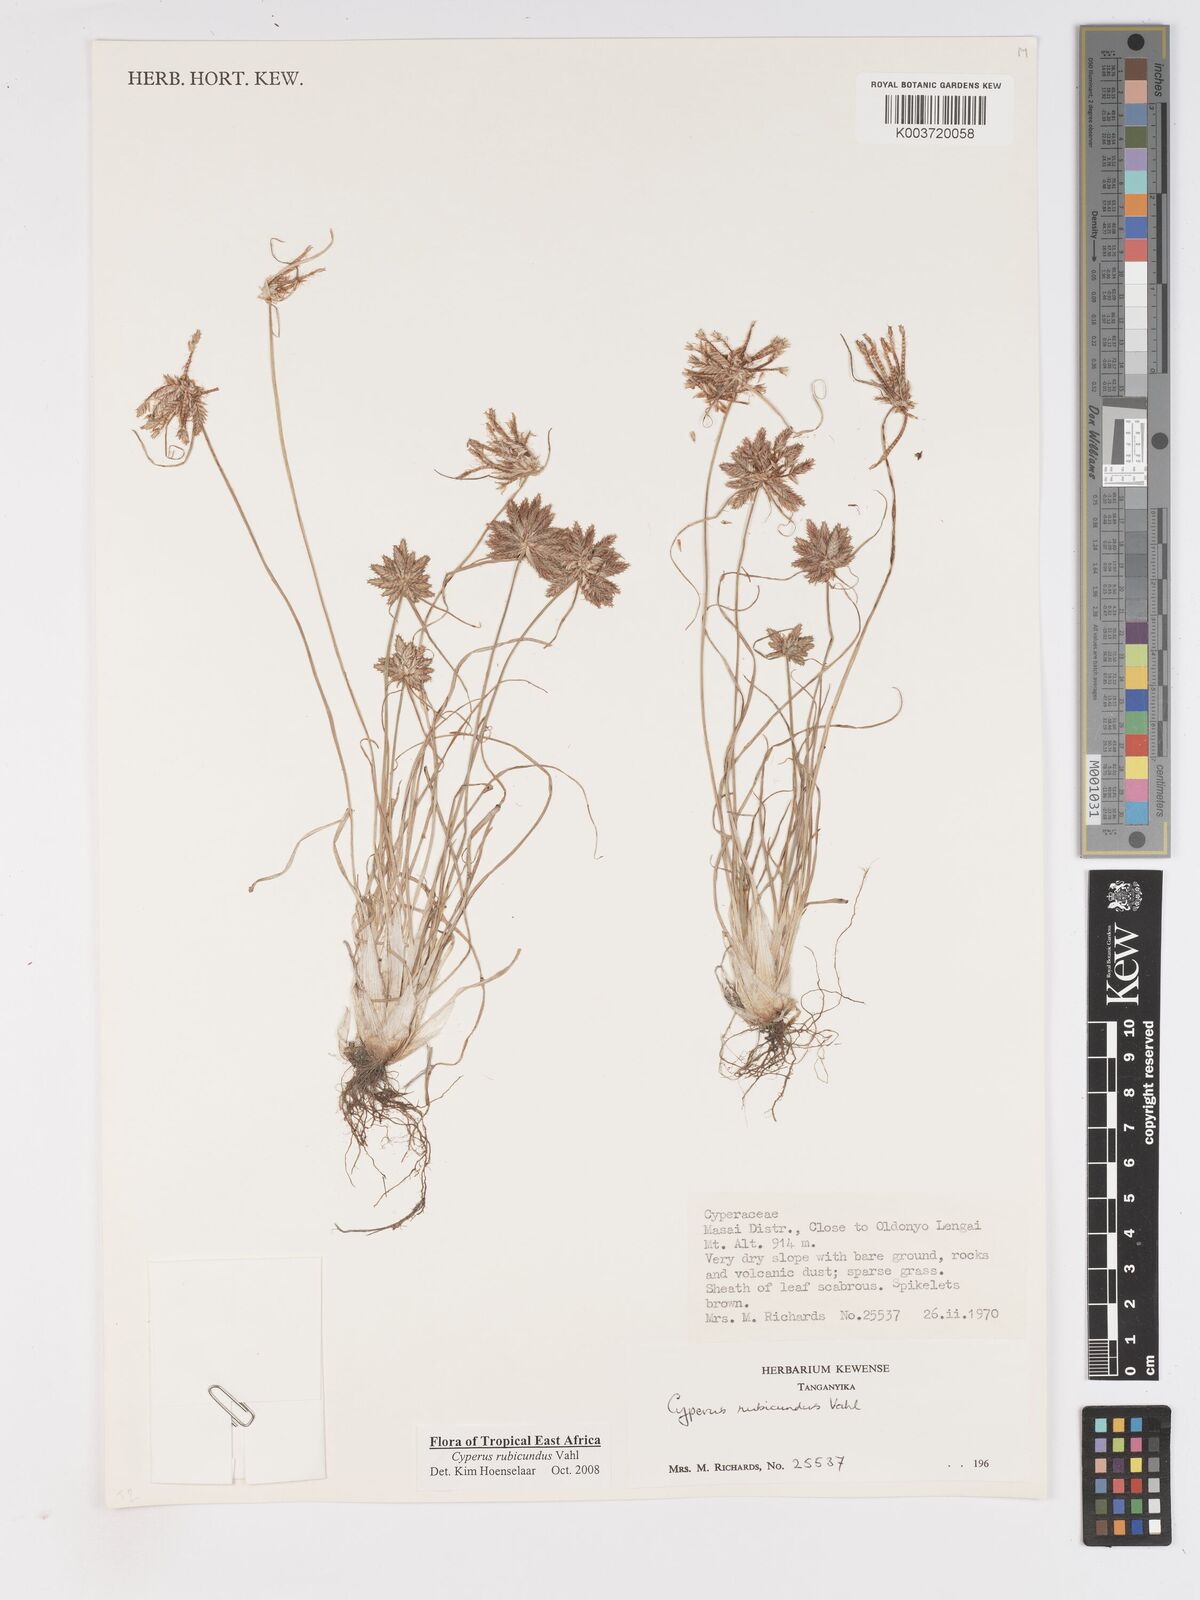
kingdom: Plantae
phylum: Tracheophyta
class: Liliopsida
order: Poales
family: Cyperaceae
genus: Cyperus
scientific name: Cyperus rubicundus
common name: Coco-grass
